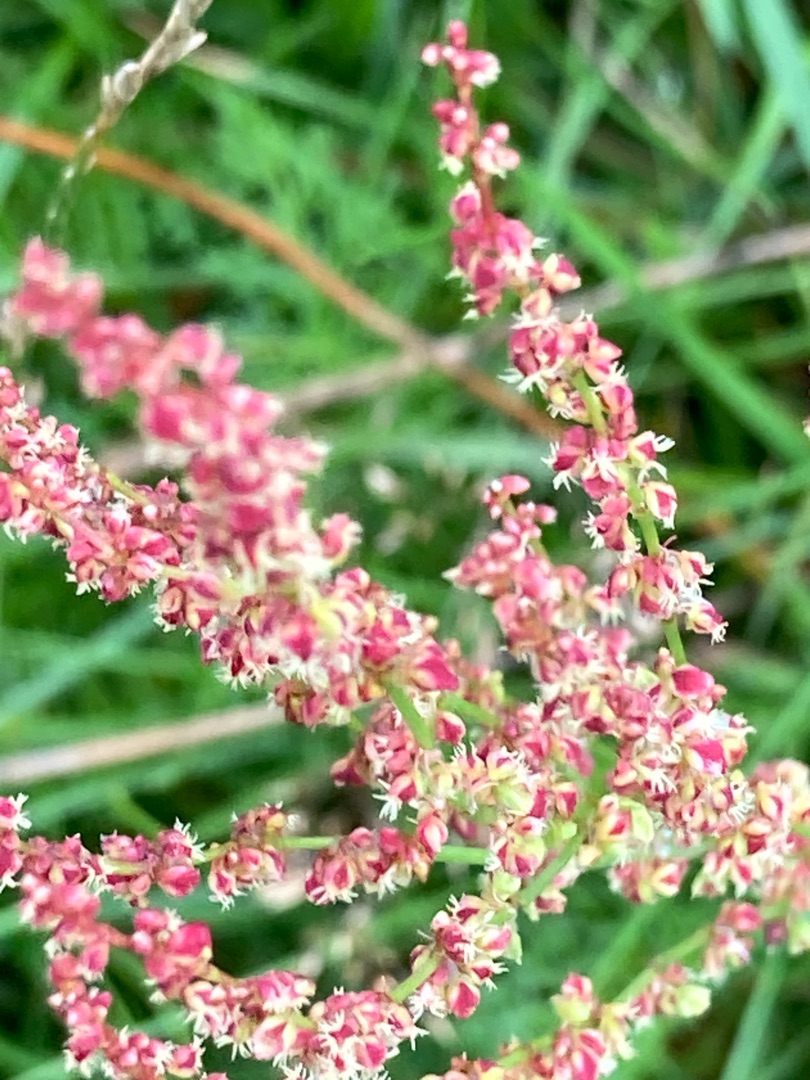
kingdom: Plantae
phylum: Tracheophyta
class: Magnoliopsida
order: Caryophyllales
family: Polygonaceae
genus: Rumex
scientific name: Rumex acetosella
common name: Rødknæ
